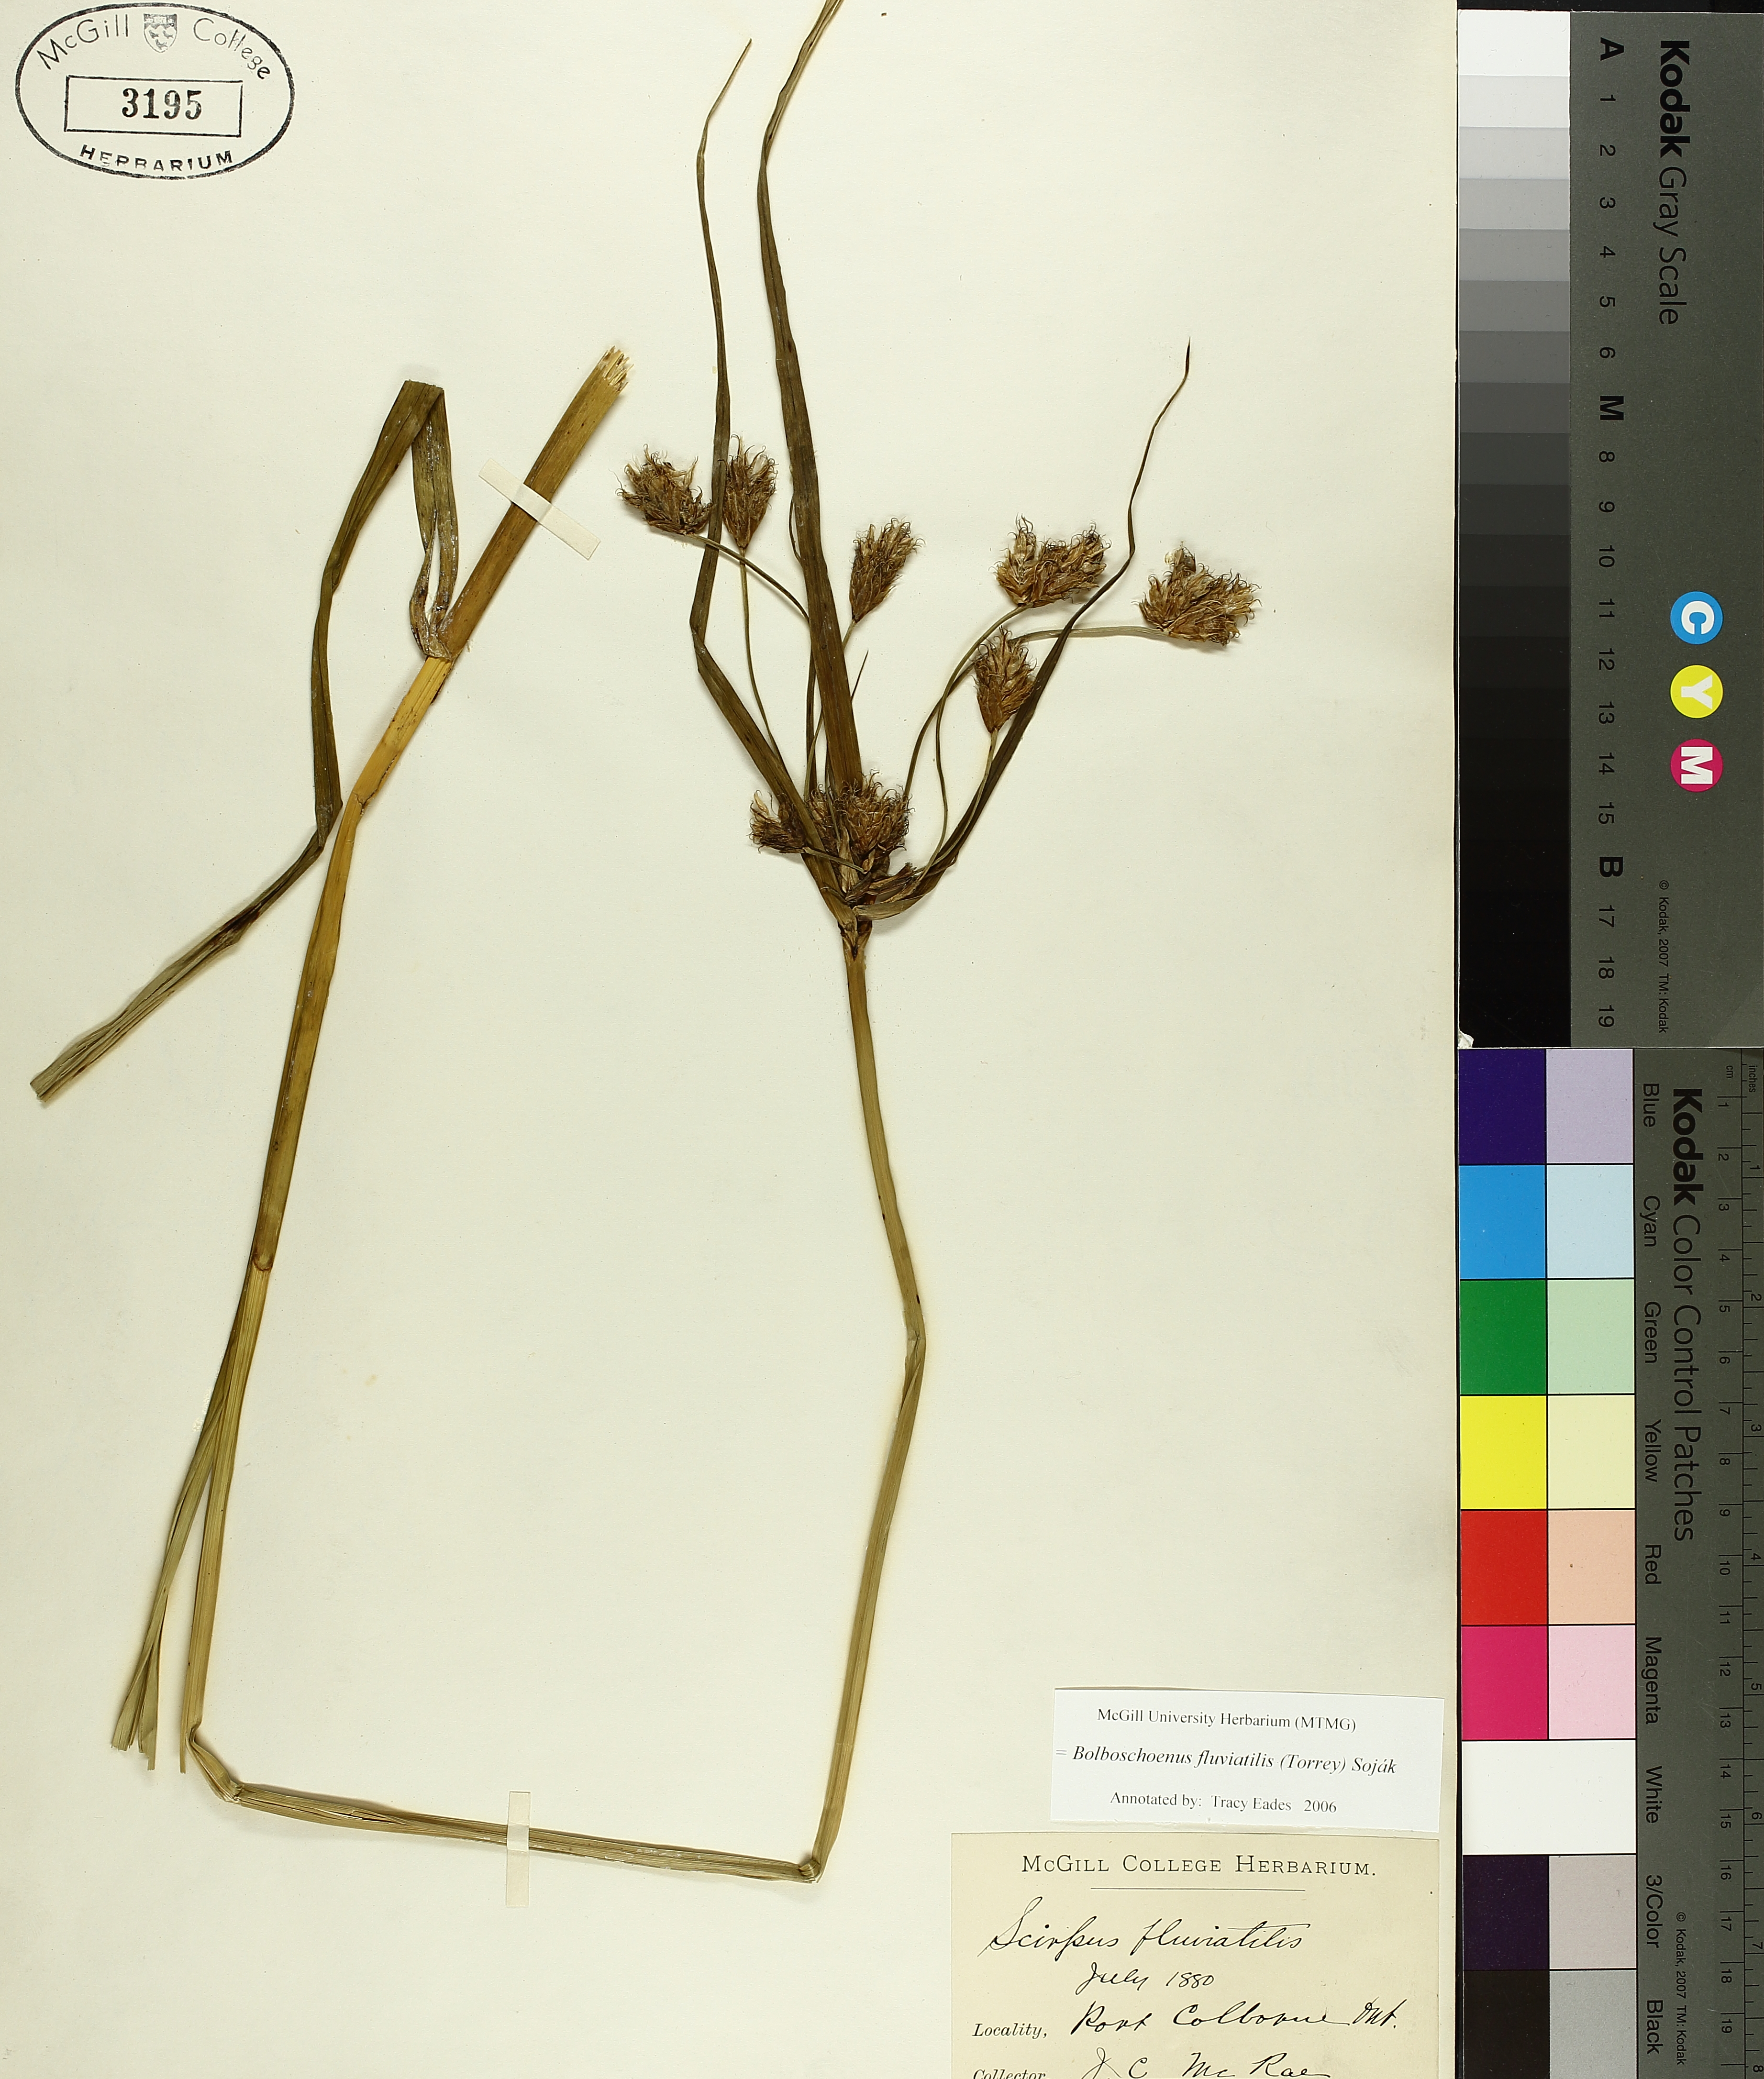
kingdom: Plantae
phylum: Tracheophyta
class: Liliopsida
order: Poales
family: Cyperaceae
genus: Bolboschoenus
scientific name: Bolboschoenus fluviatilis
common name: River bulrush
